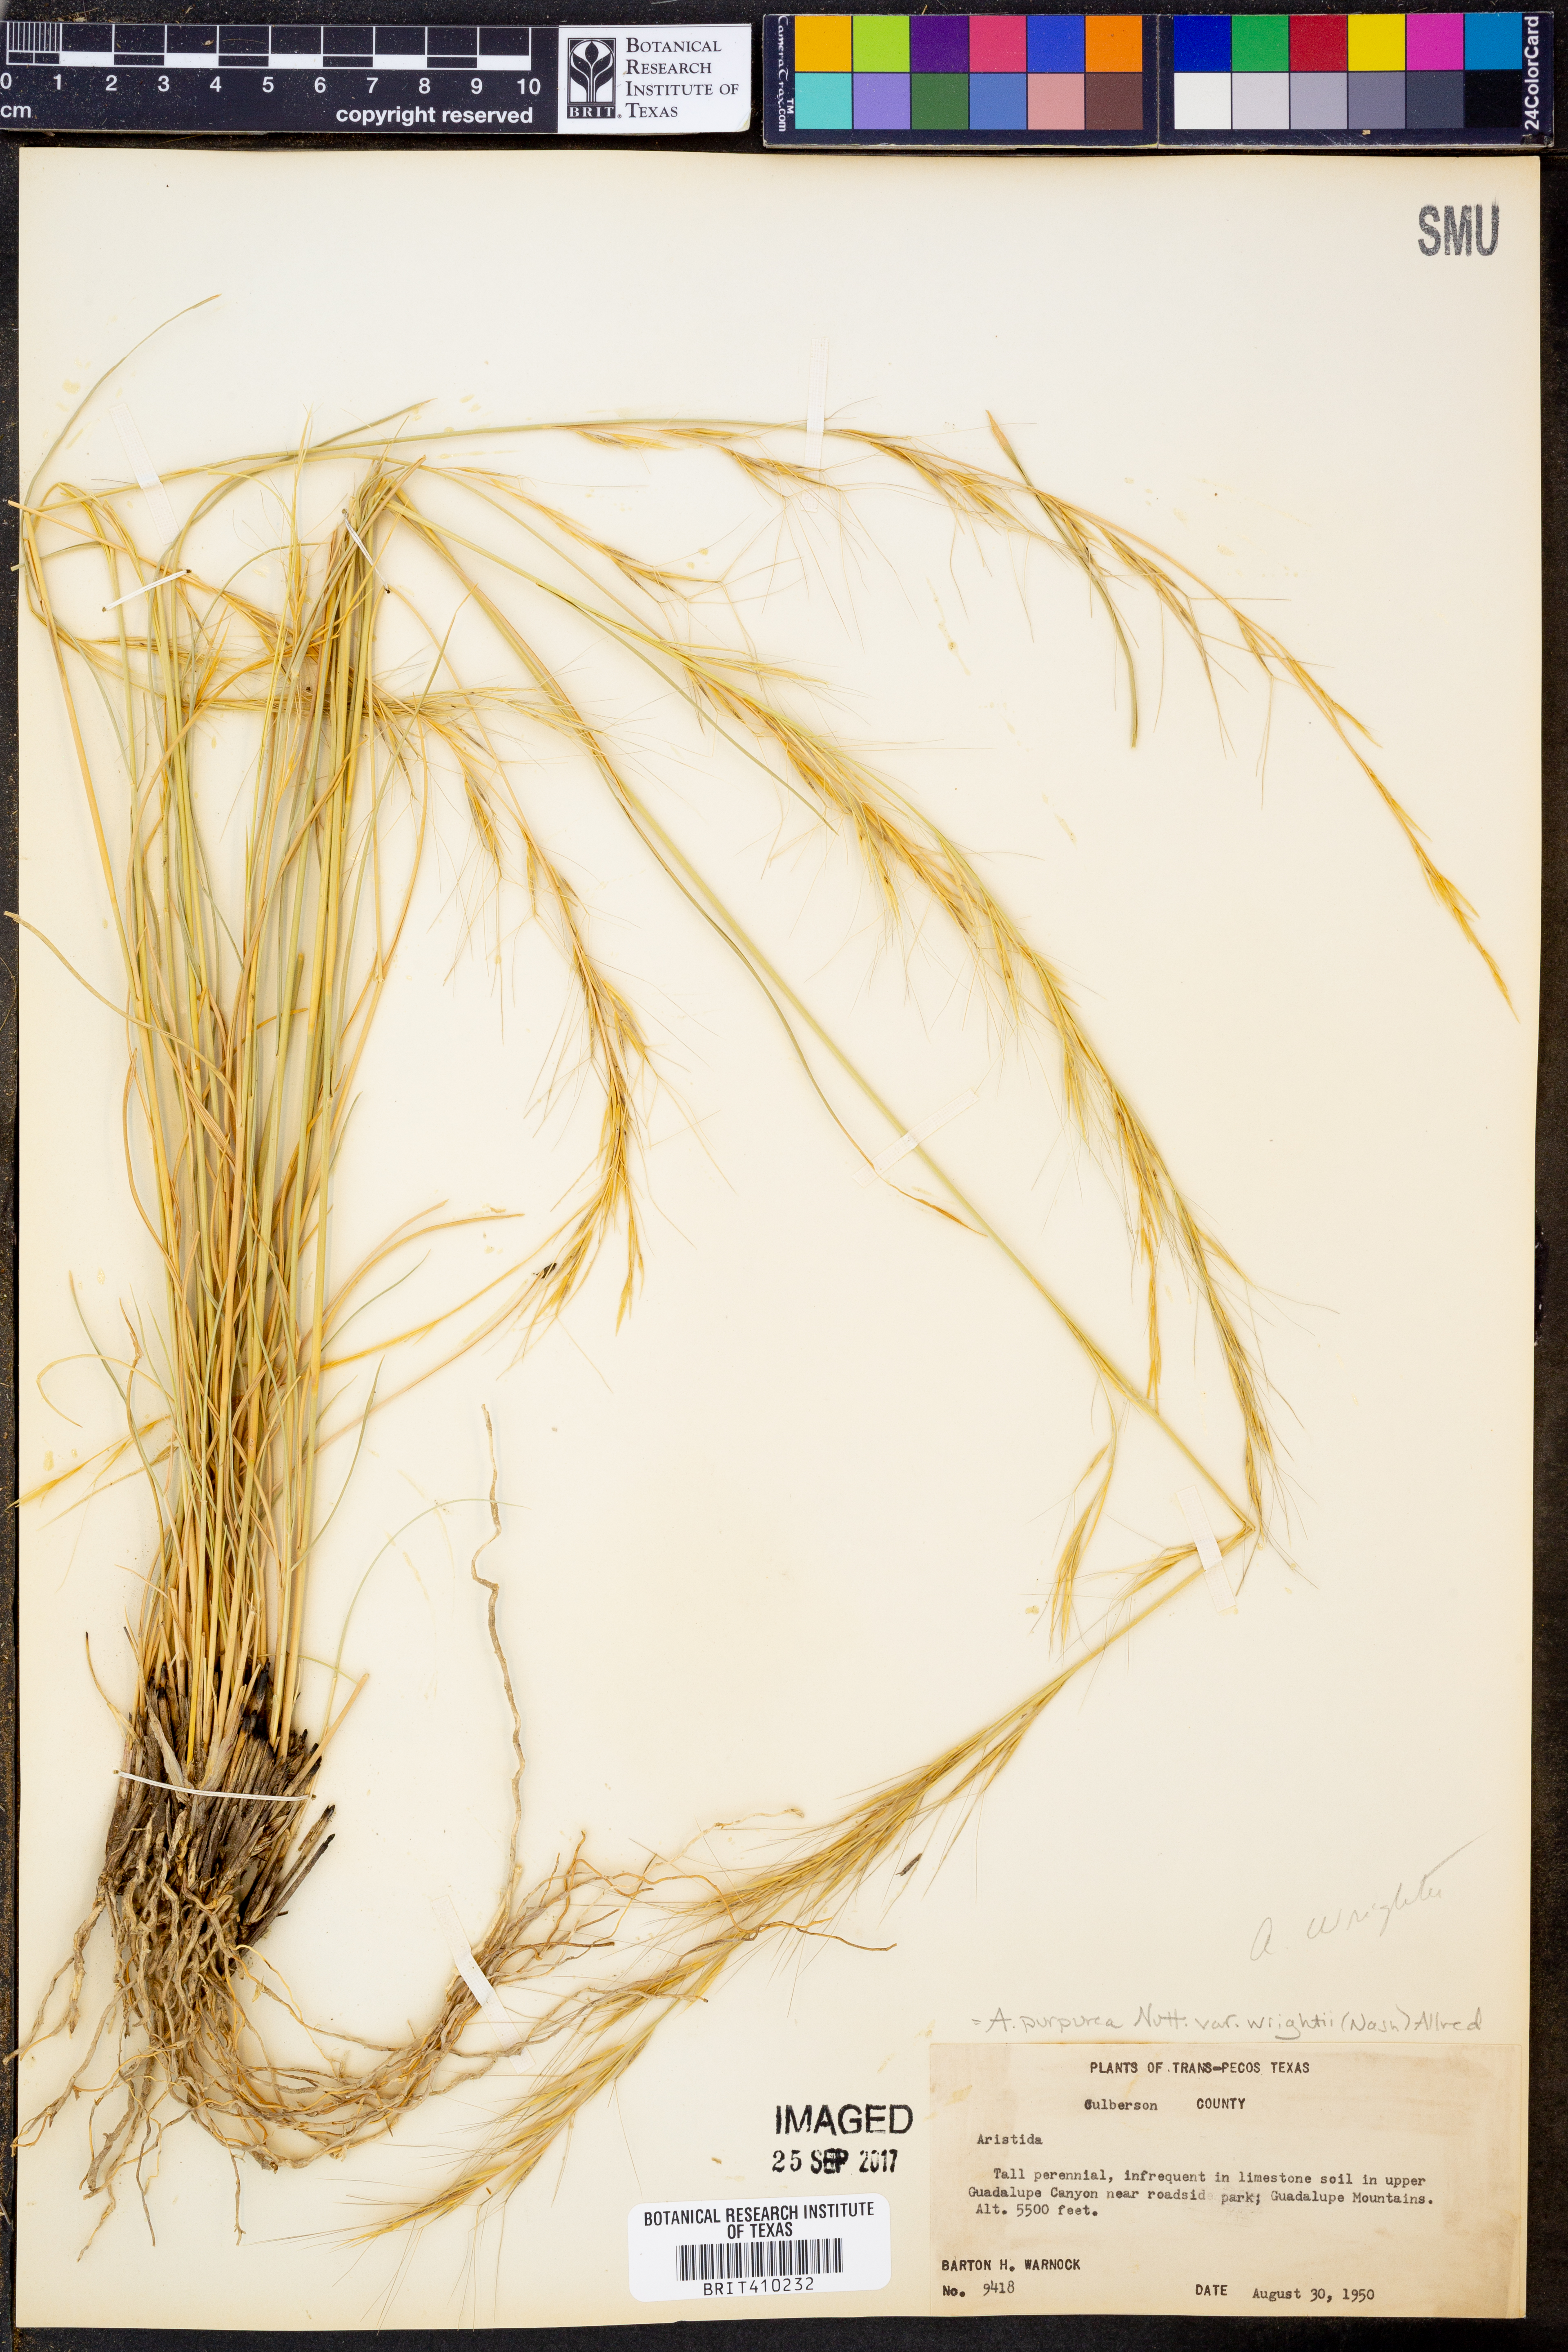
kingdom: Plantae
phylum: Tracheophyta
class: Liliopsida
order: Poales
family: Poaceae
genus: Aristida
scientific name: Aristida wrightii
